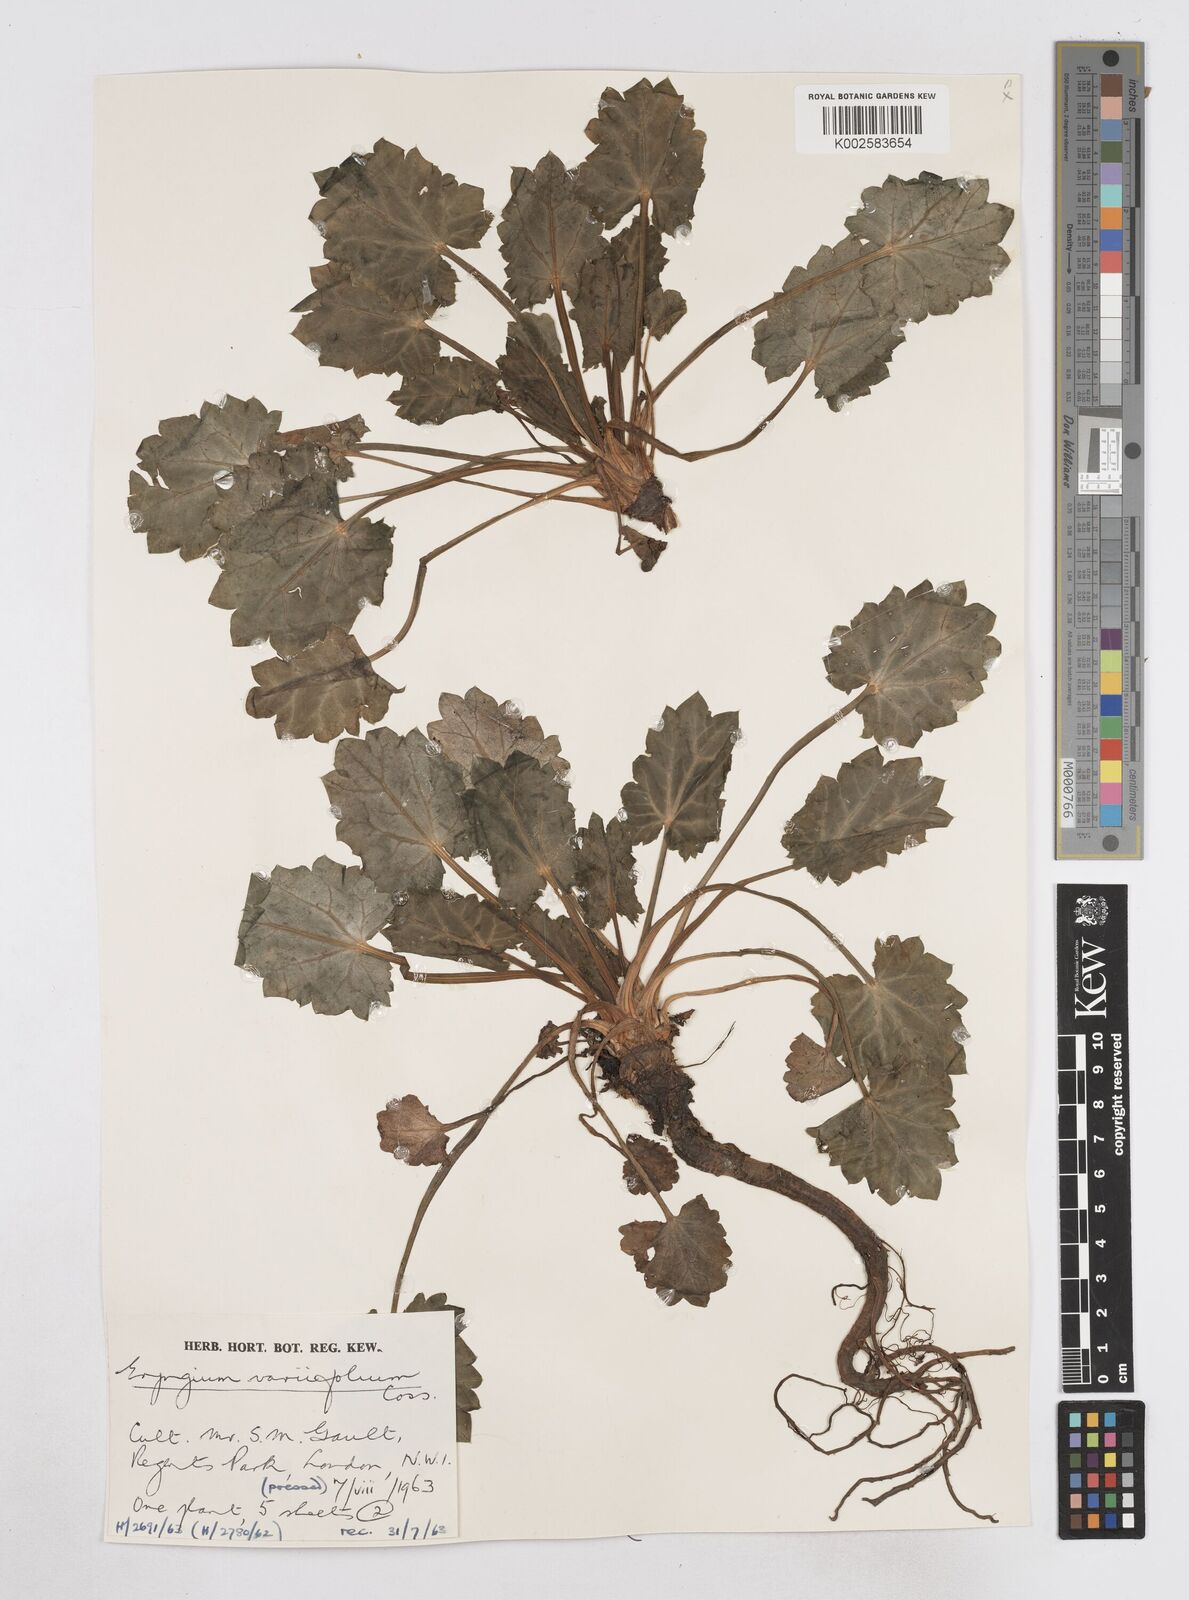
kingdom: Plantae
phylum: Tracheophyta
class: Magnoliopsida
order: Apiales
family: Apiaceae
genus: Eryngium
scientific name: Eryngium variifolium
